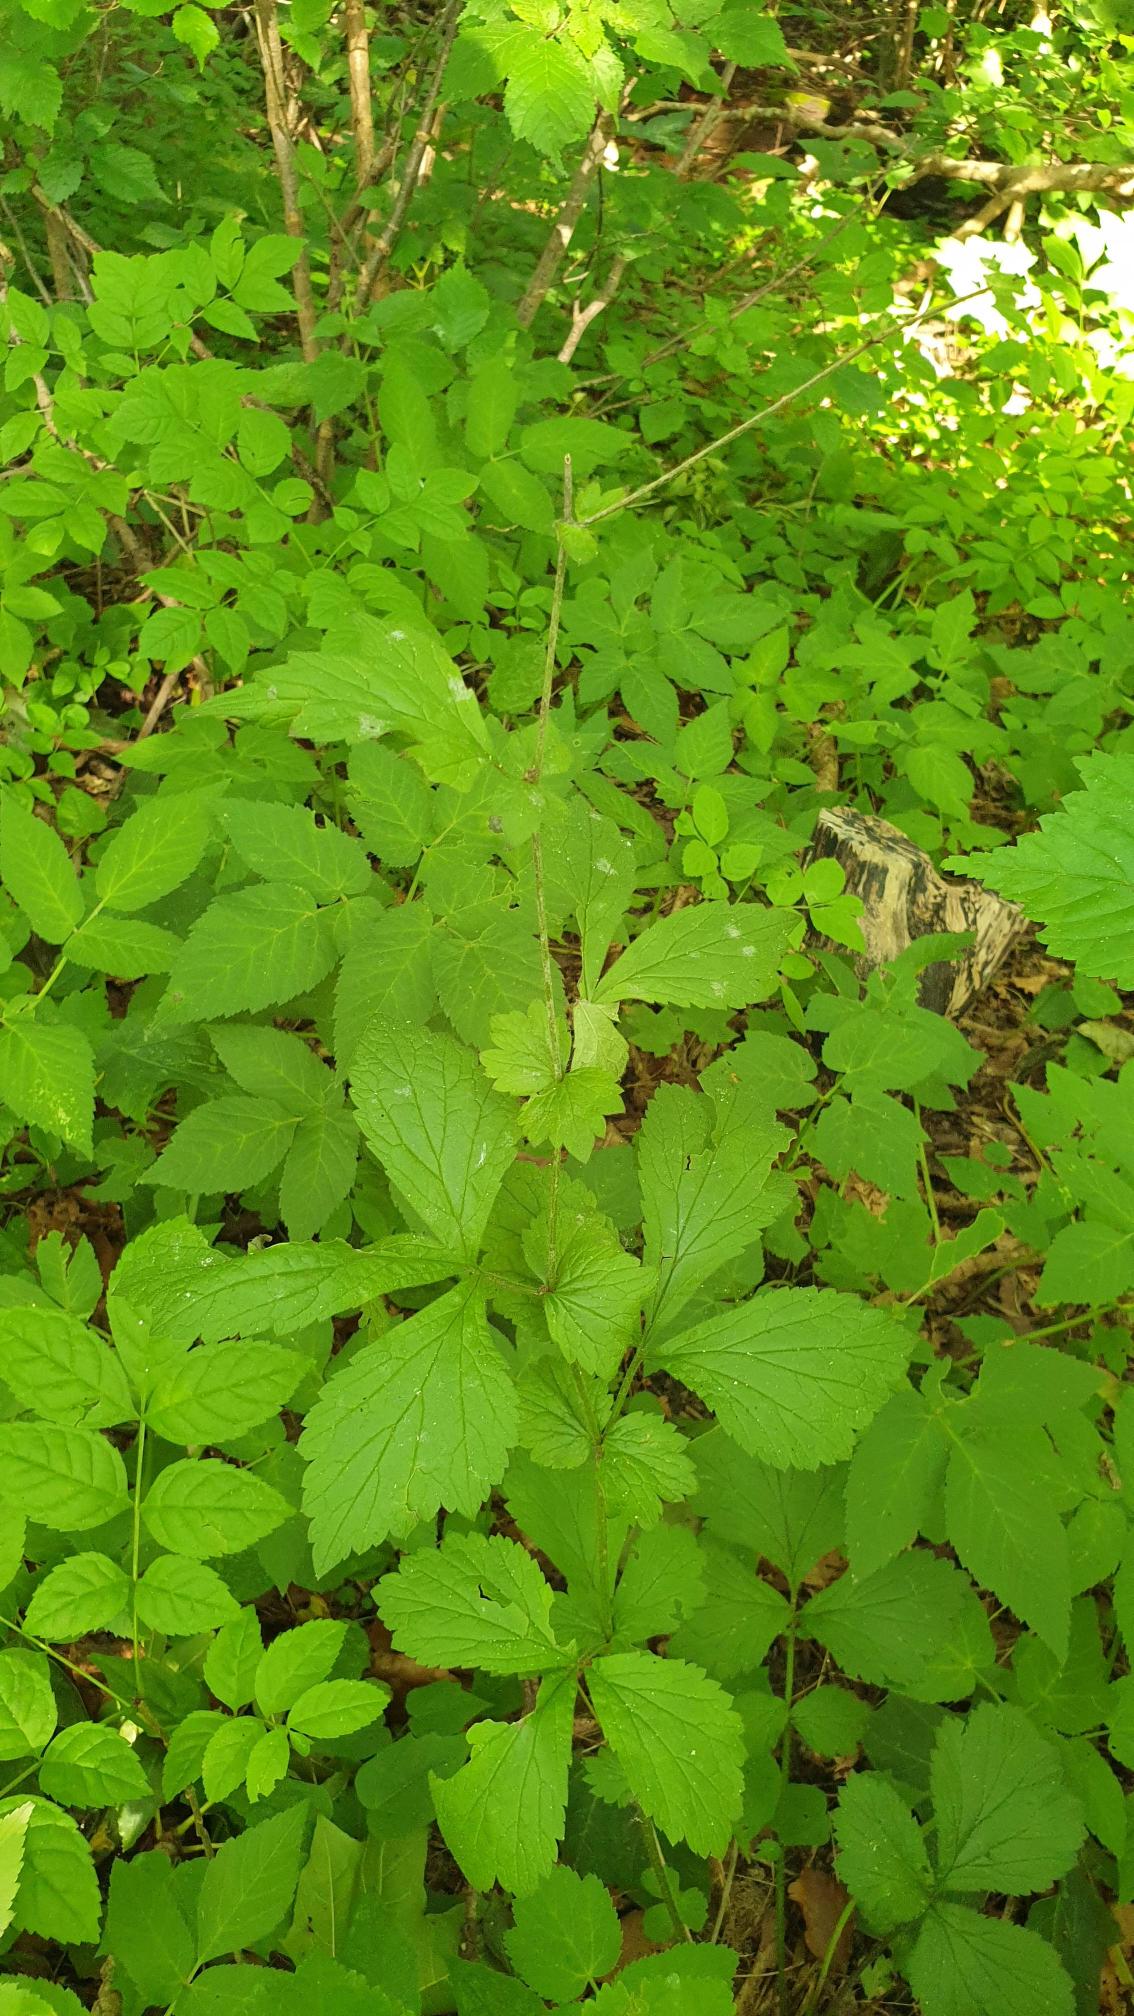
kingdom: Plantae
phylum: Tracheophyta
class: Magnoliopsida
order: Rosales
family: Rosaceae
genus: Geum
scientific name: Geum urbanum
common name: Feber-nellikerod
